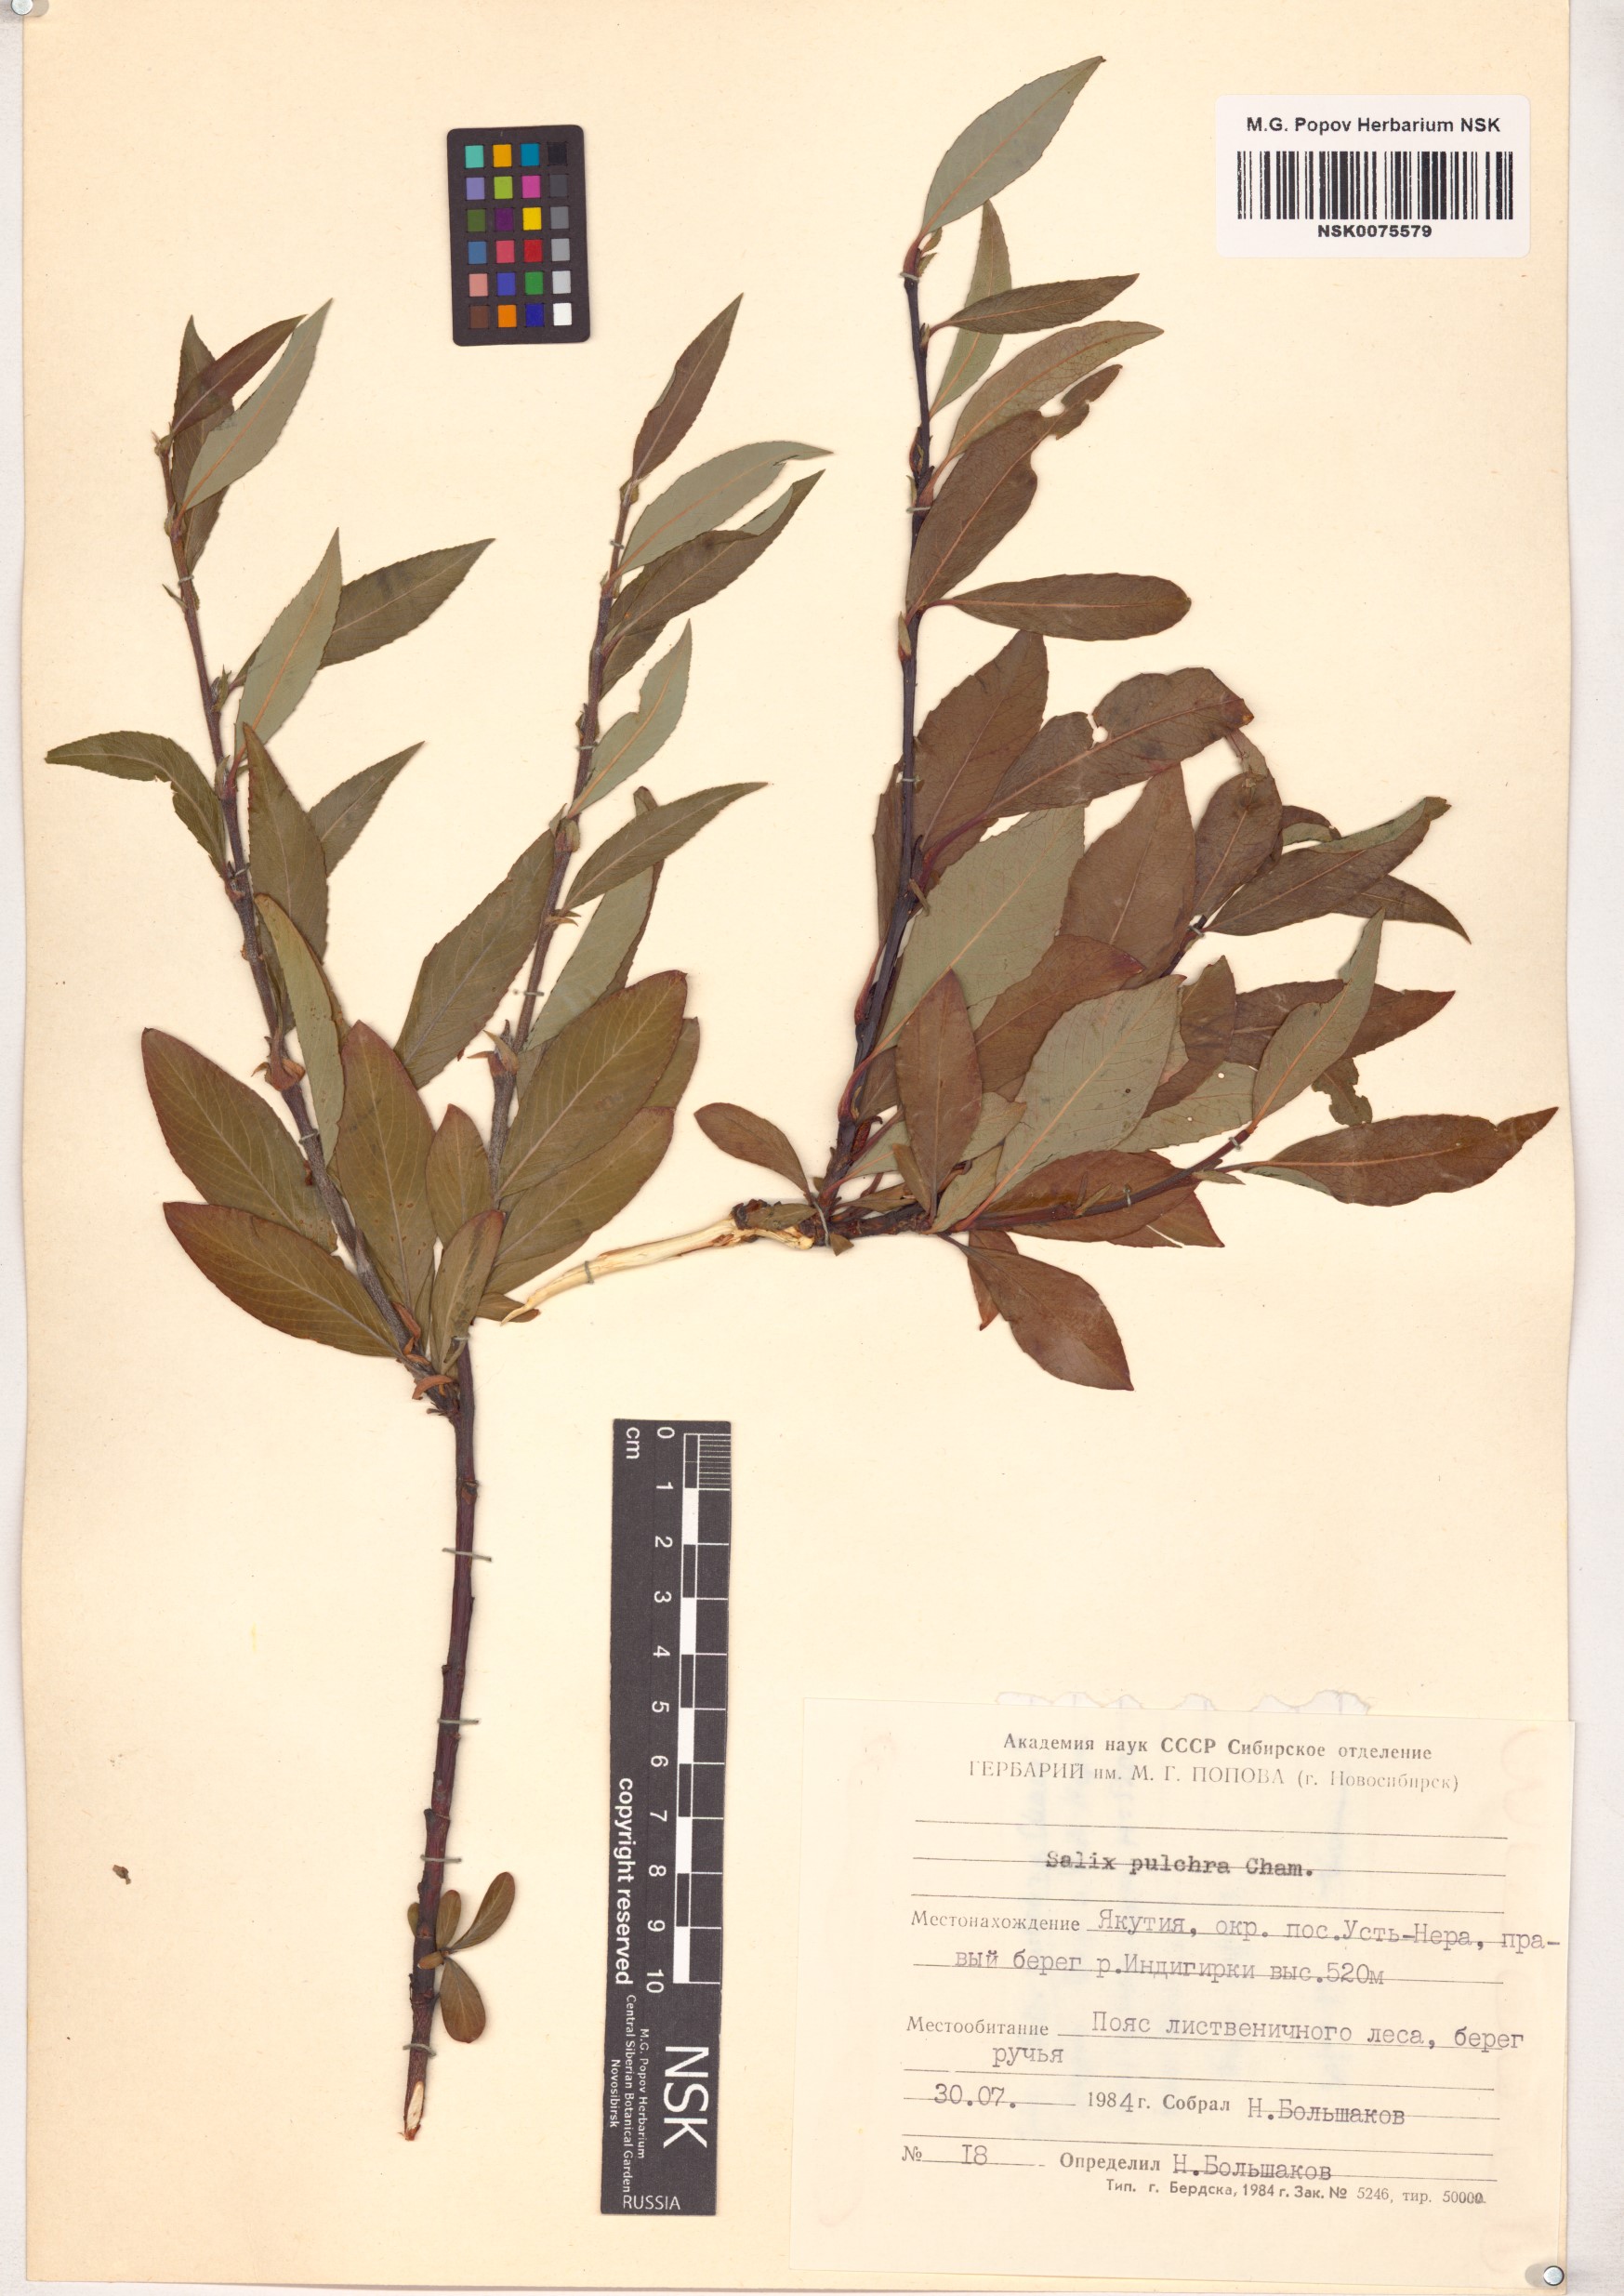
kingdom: Plantae
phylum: Tracheophyta
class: Magnoliopsida
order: Malpighiales
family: Salicaceae
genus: Salix
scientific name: Salix pulchra
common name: Diamond-leaved willow
